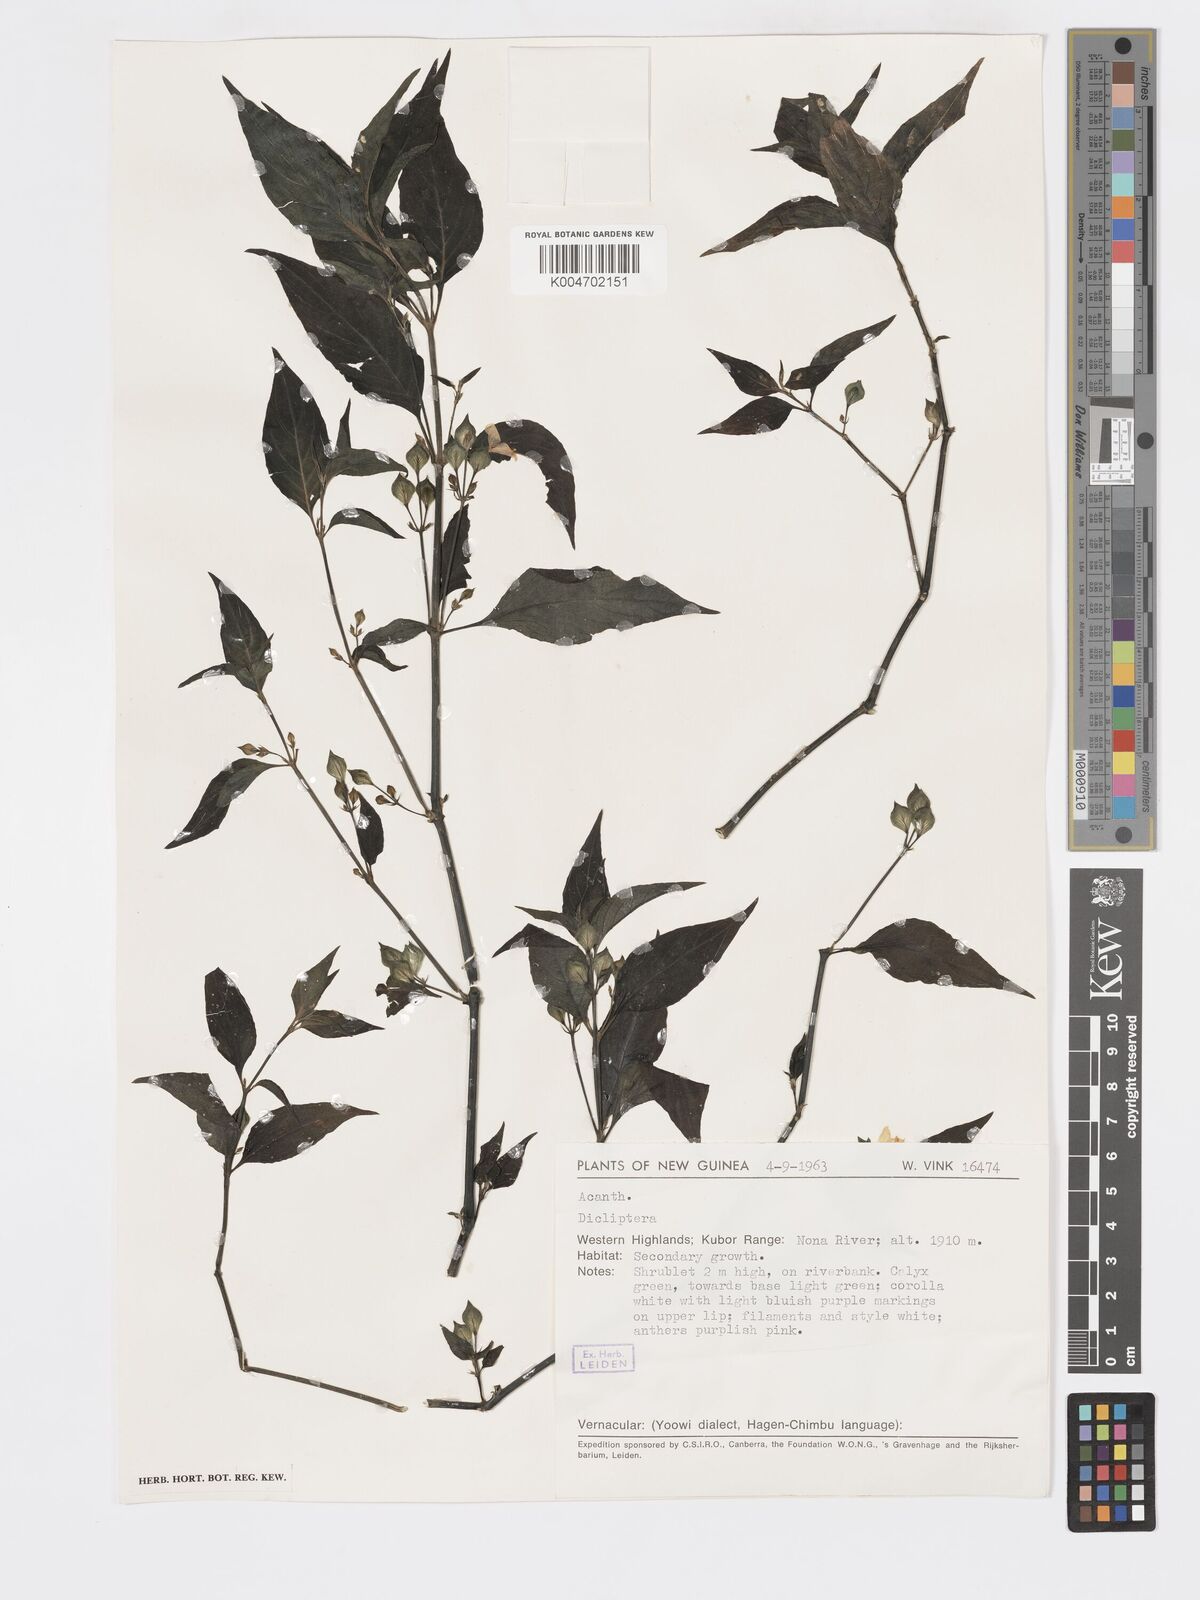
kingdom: Plantae
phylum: Tracheophyta
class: Magnoliopsida
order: Lamiales
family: Acanthaceae
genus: Dicliptera
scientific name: Dicliptera
